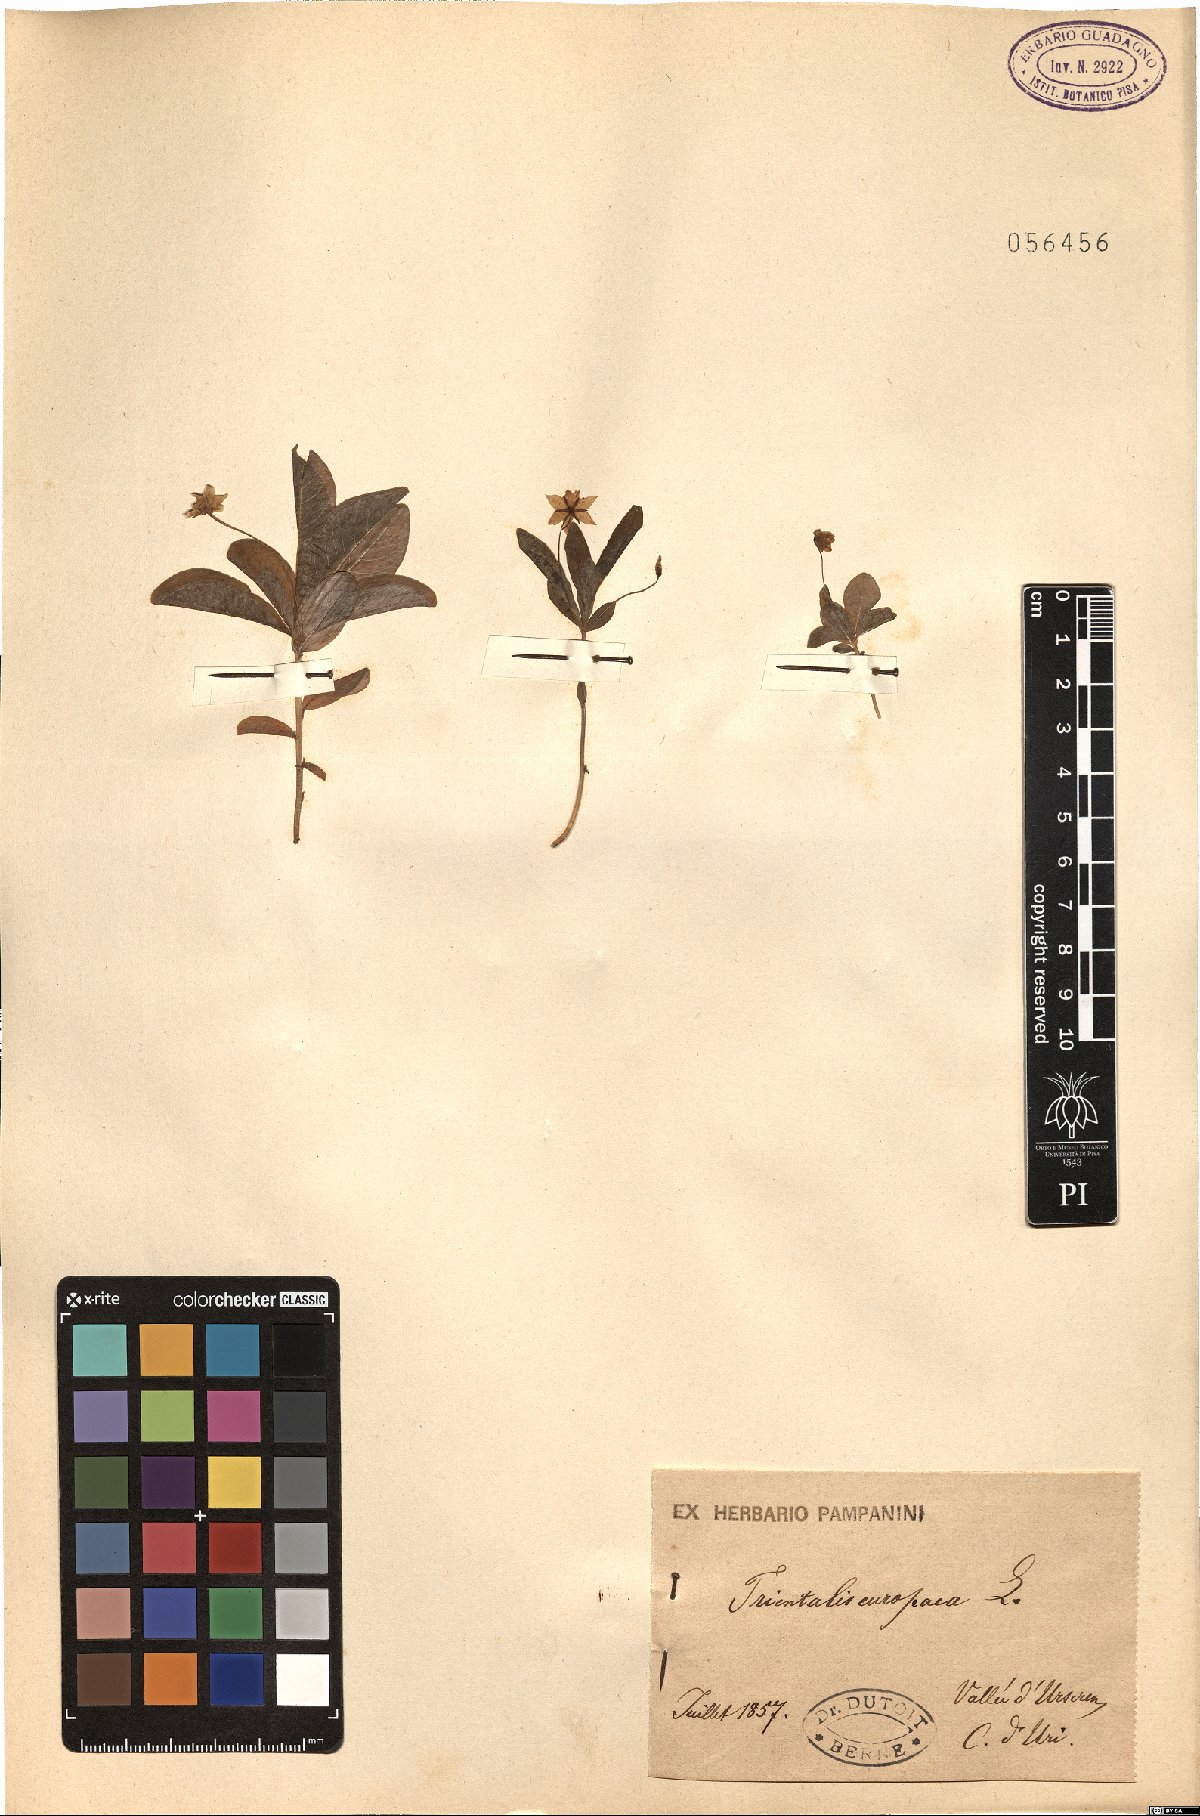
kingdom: Plantae
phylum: Tracheophyta
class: Magnoliopsida
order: Ericales
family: Primulaceae
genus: Lysimachia
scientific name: Lysimachia europaea
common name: Arctic starflower
